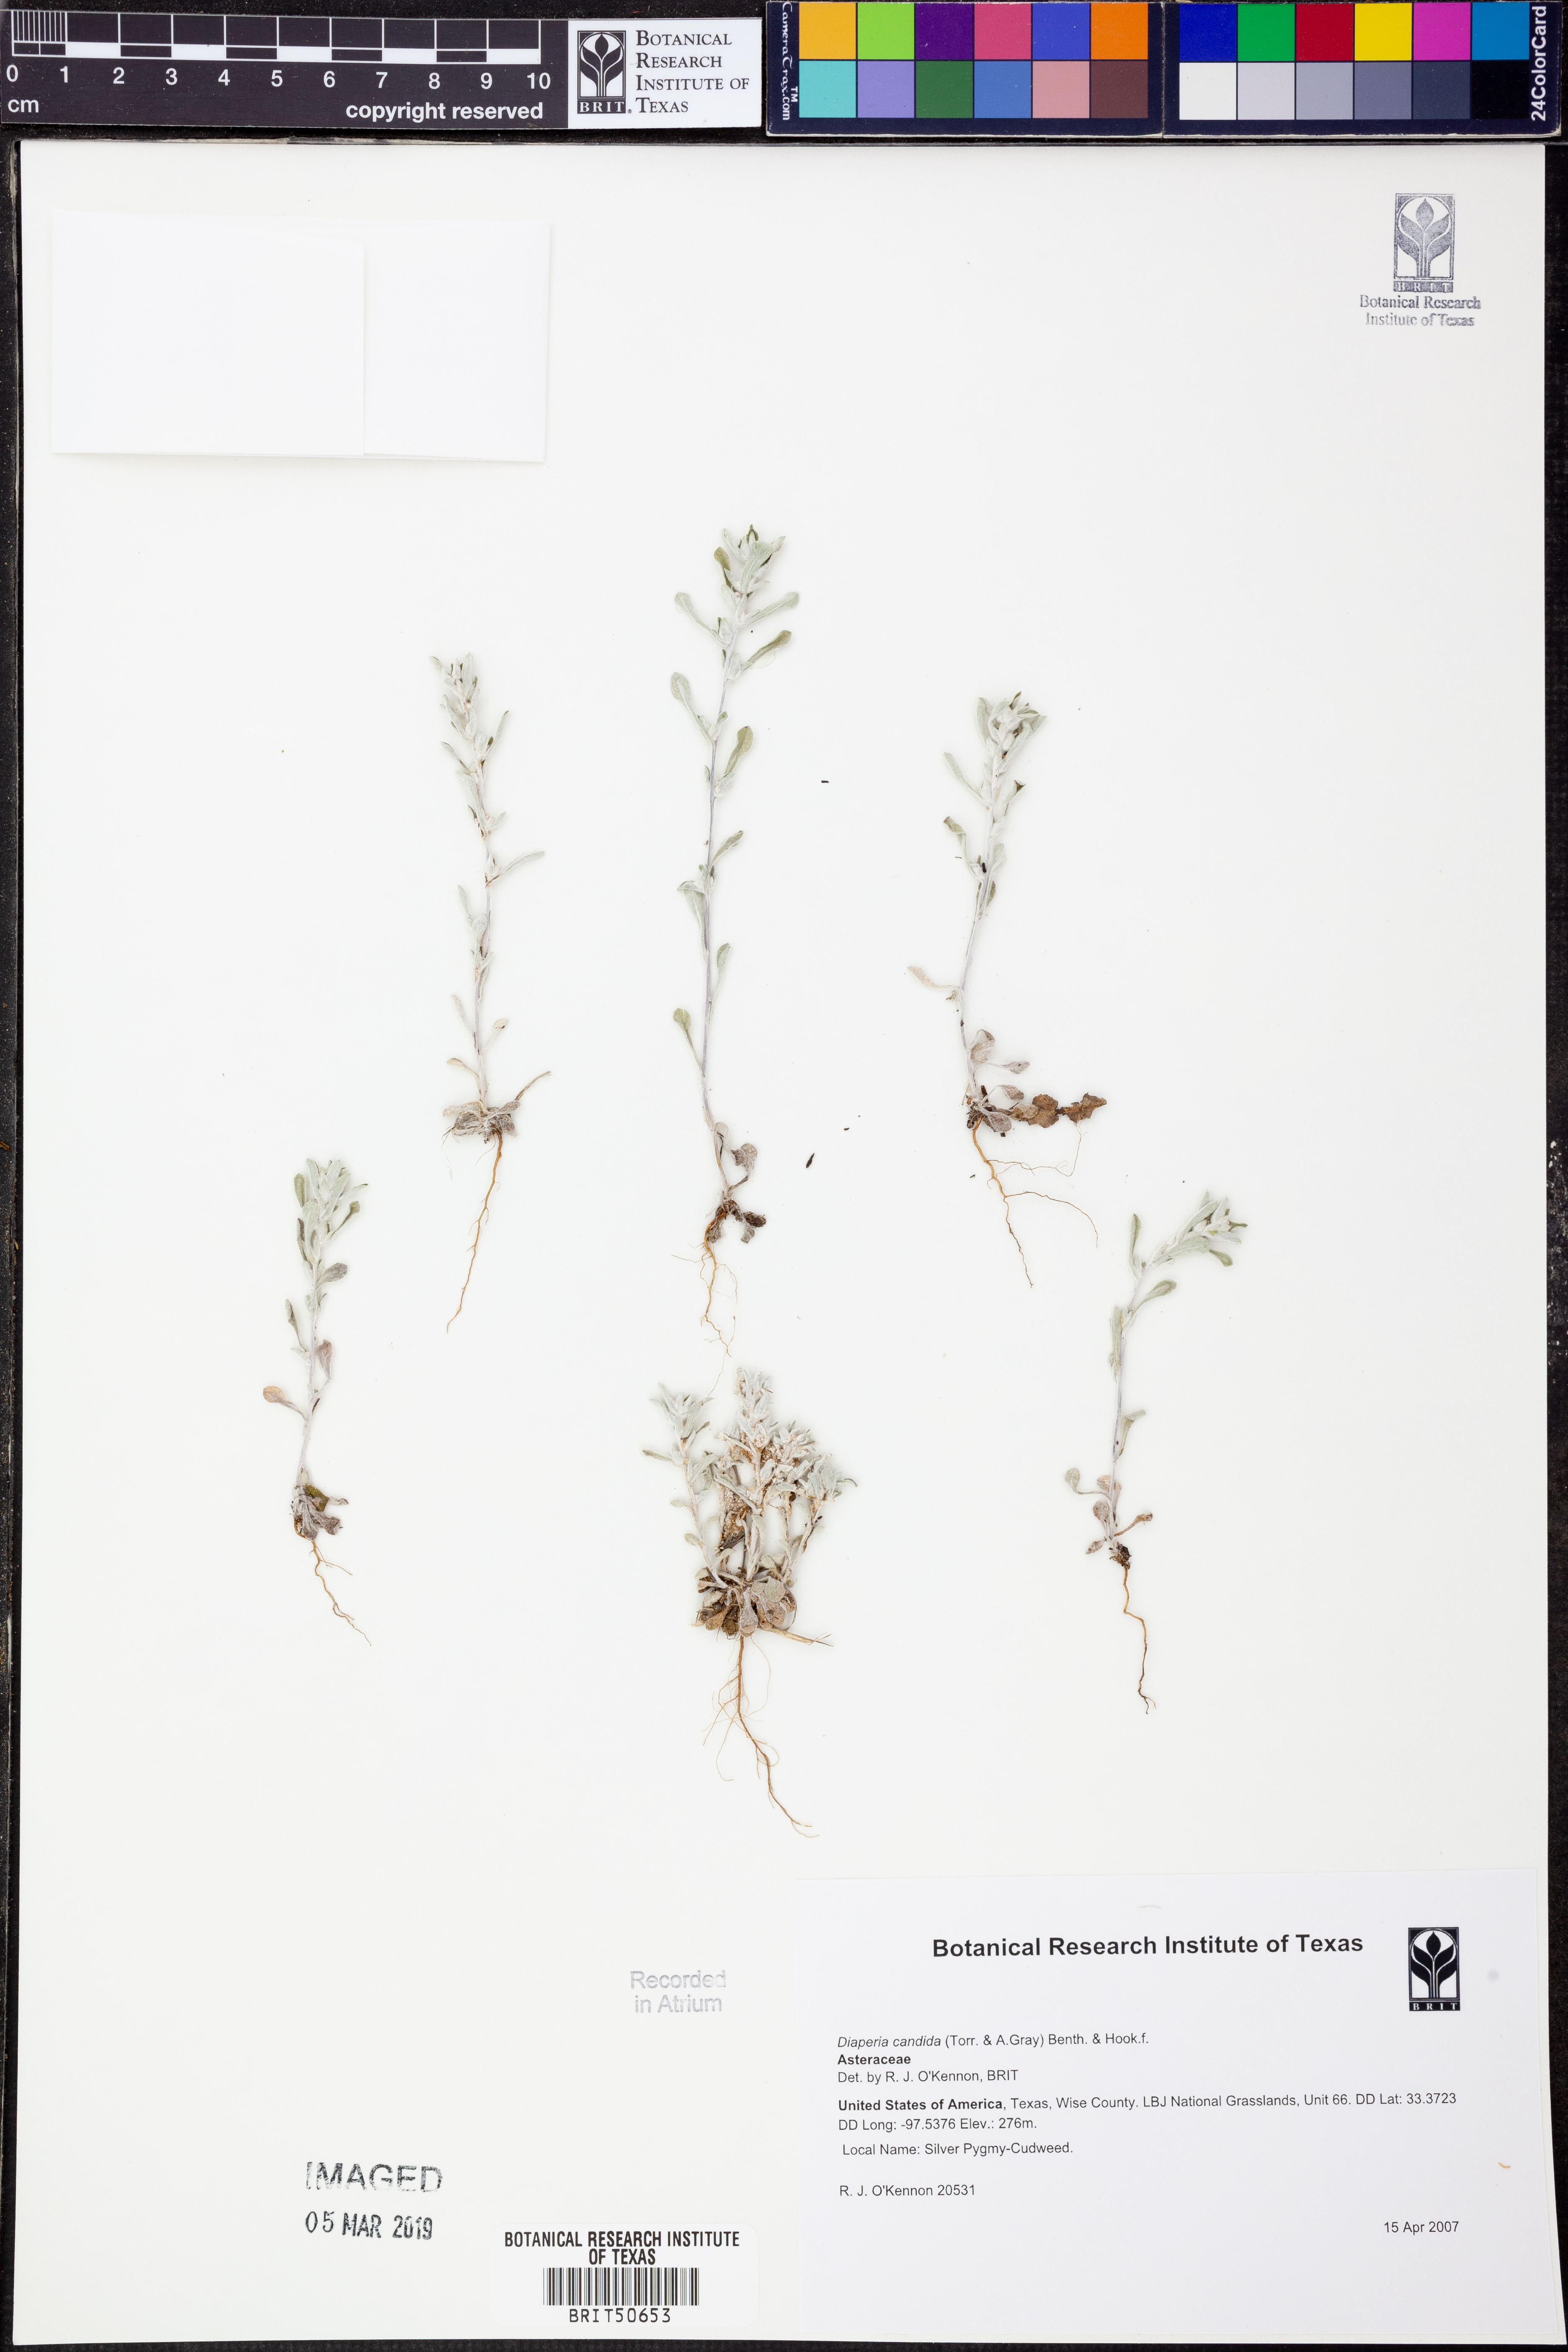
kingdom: Plantae
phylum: Tracheophyta
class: Magnoliopsida
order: Asterales
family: Asteraceae
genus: Diaperia
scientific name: Diaperia candida
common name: Silver rabbit-tobacco
